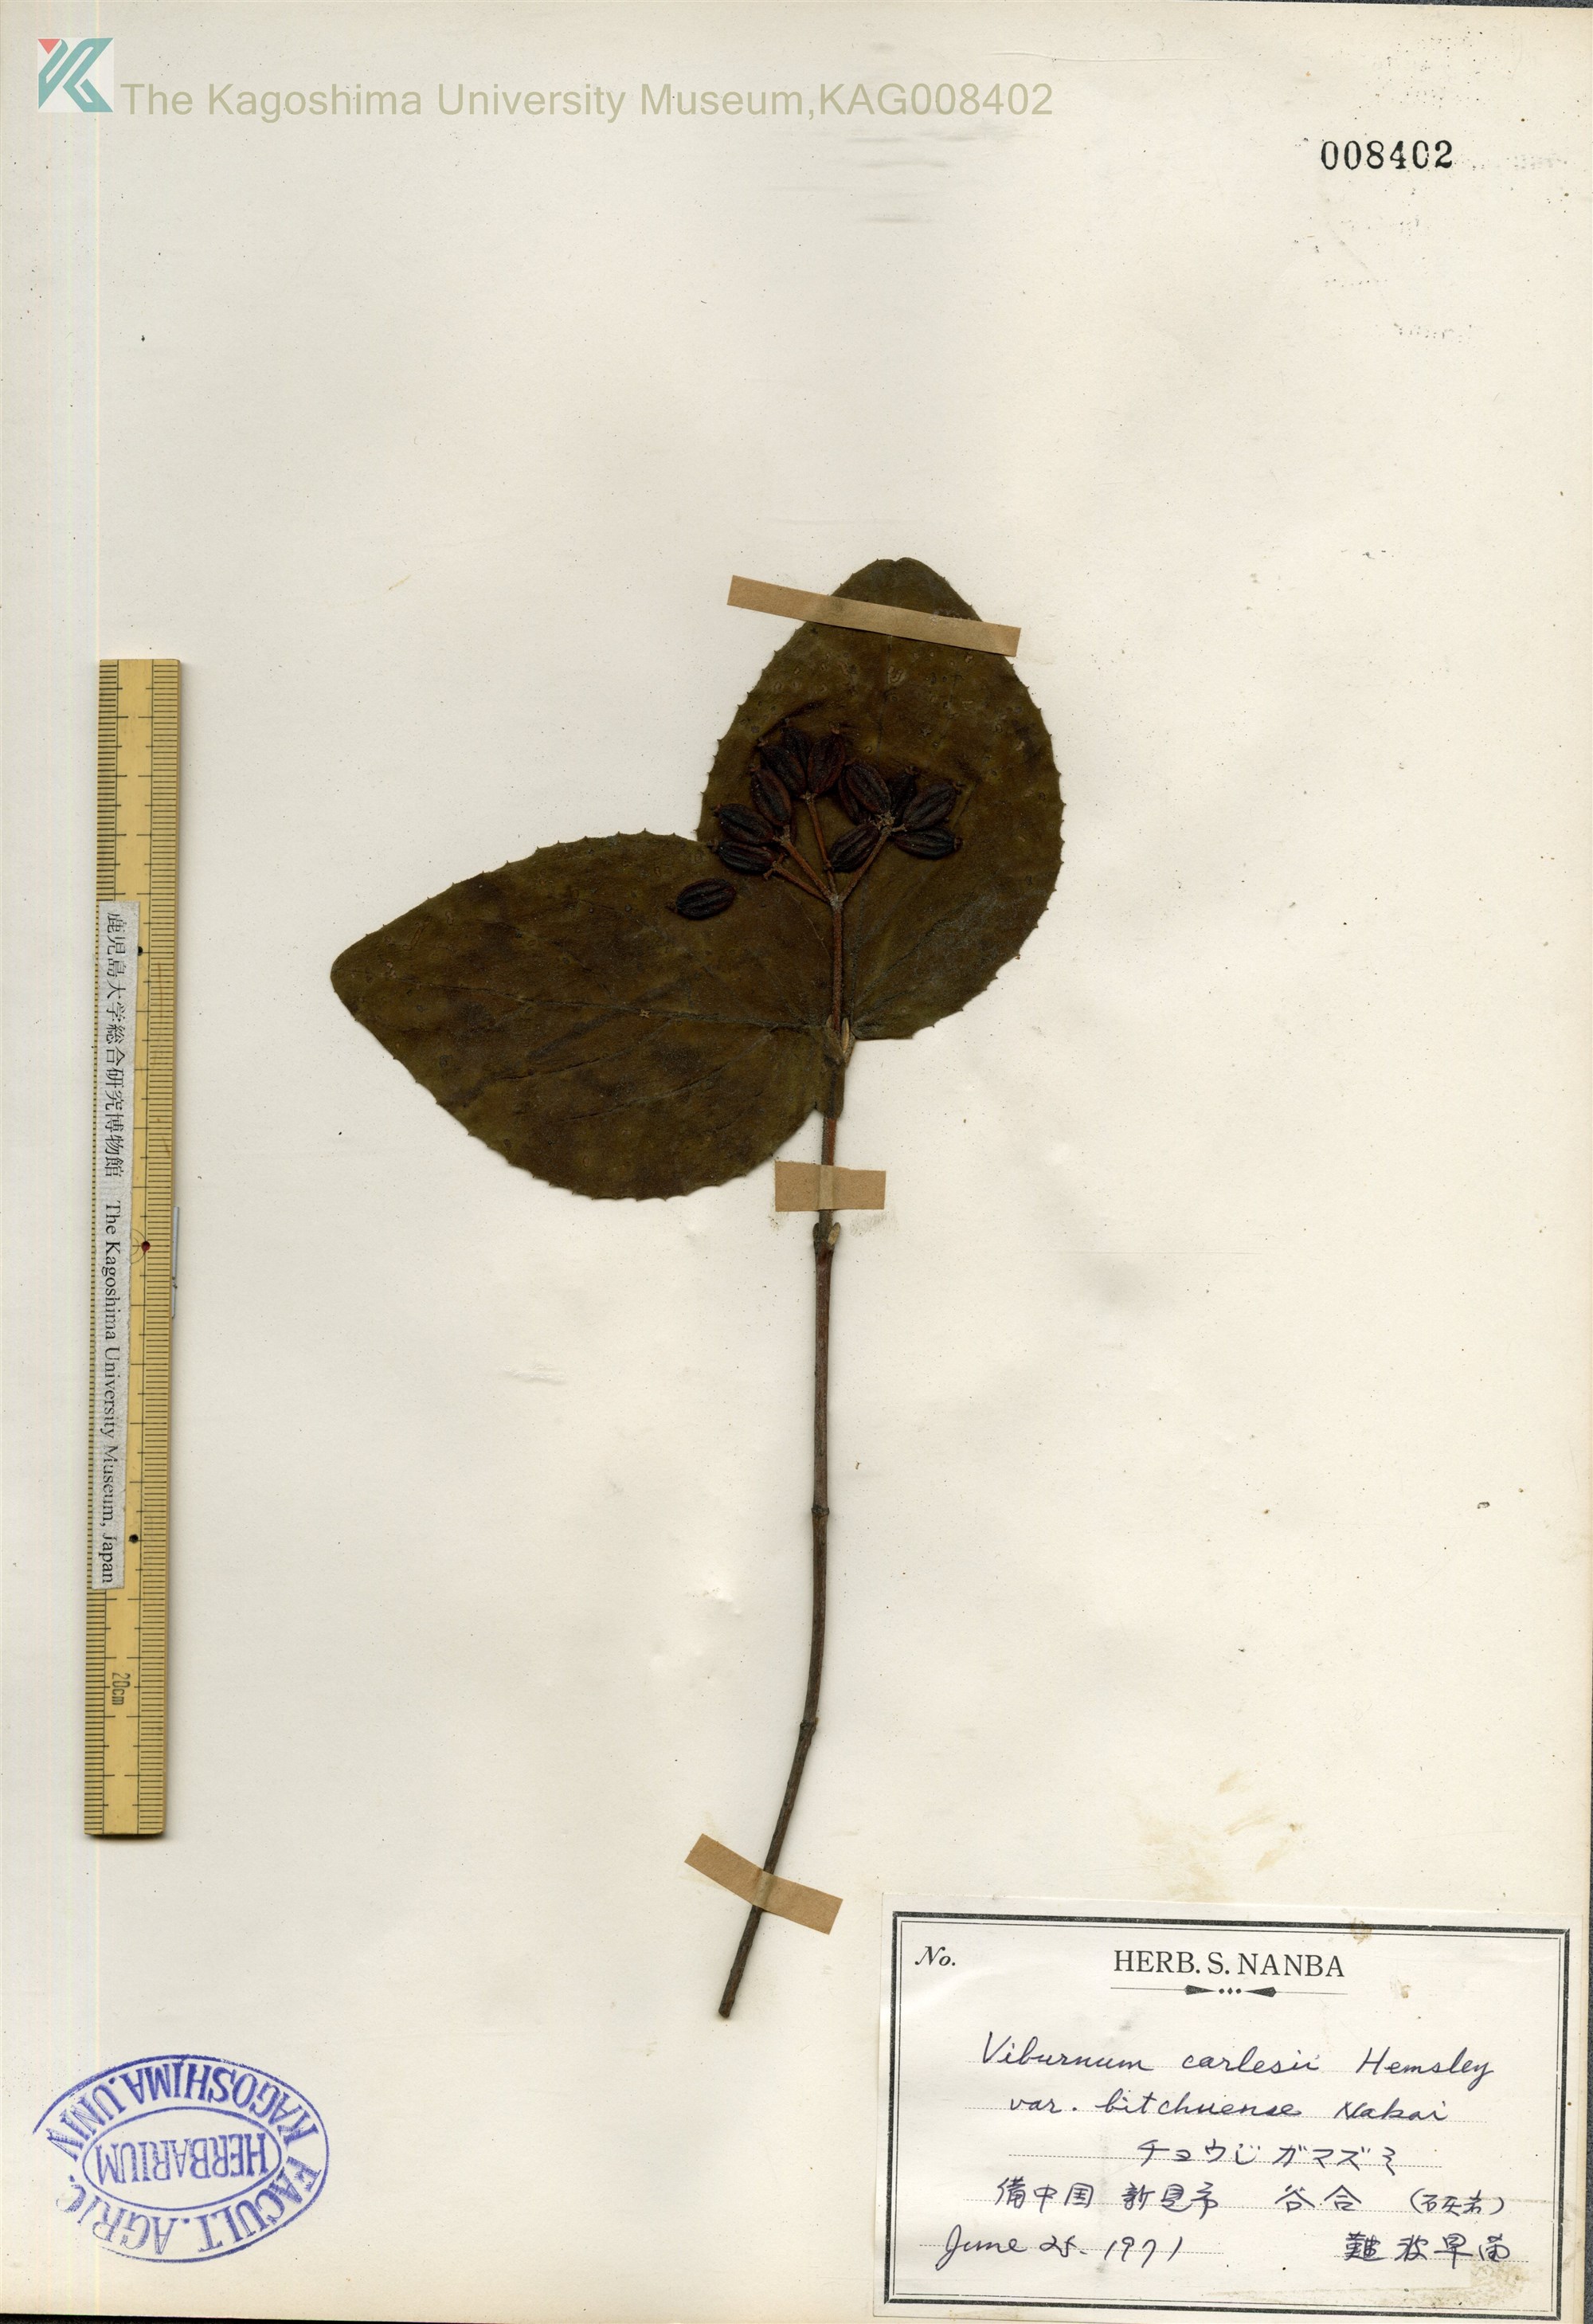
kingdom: Plantae
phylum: Tracheophyta
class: Magnoliopsida
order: Dipsacales
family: Viburnaceae
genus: Viburnum
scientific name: Viburnum carlesii
